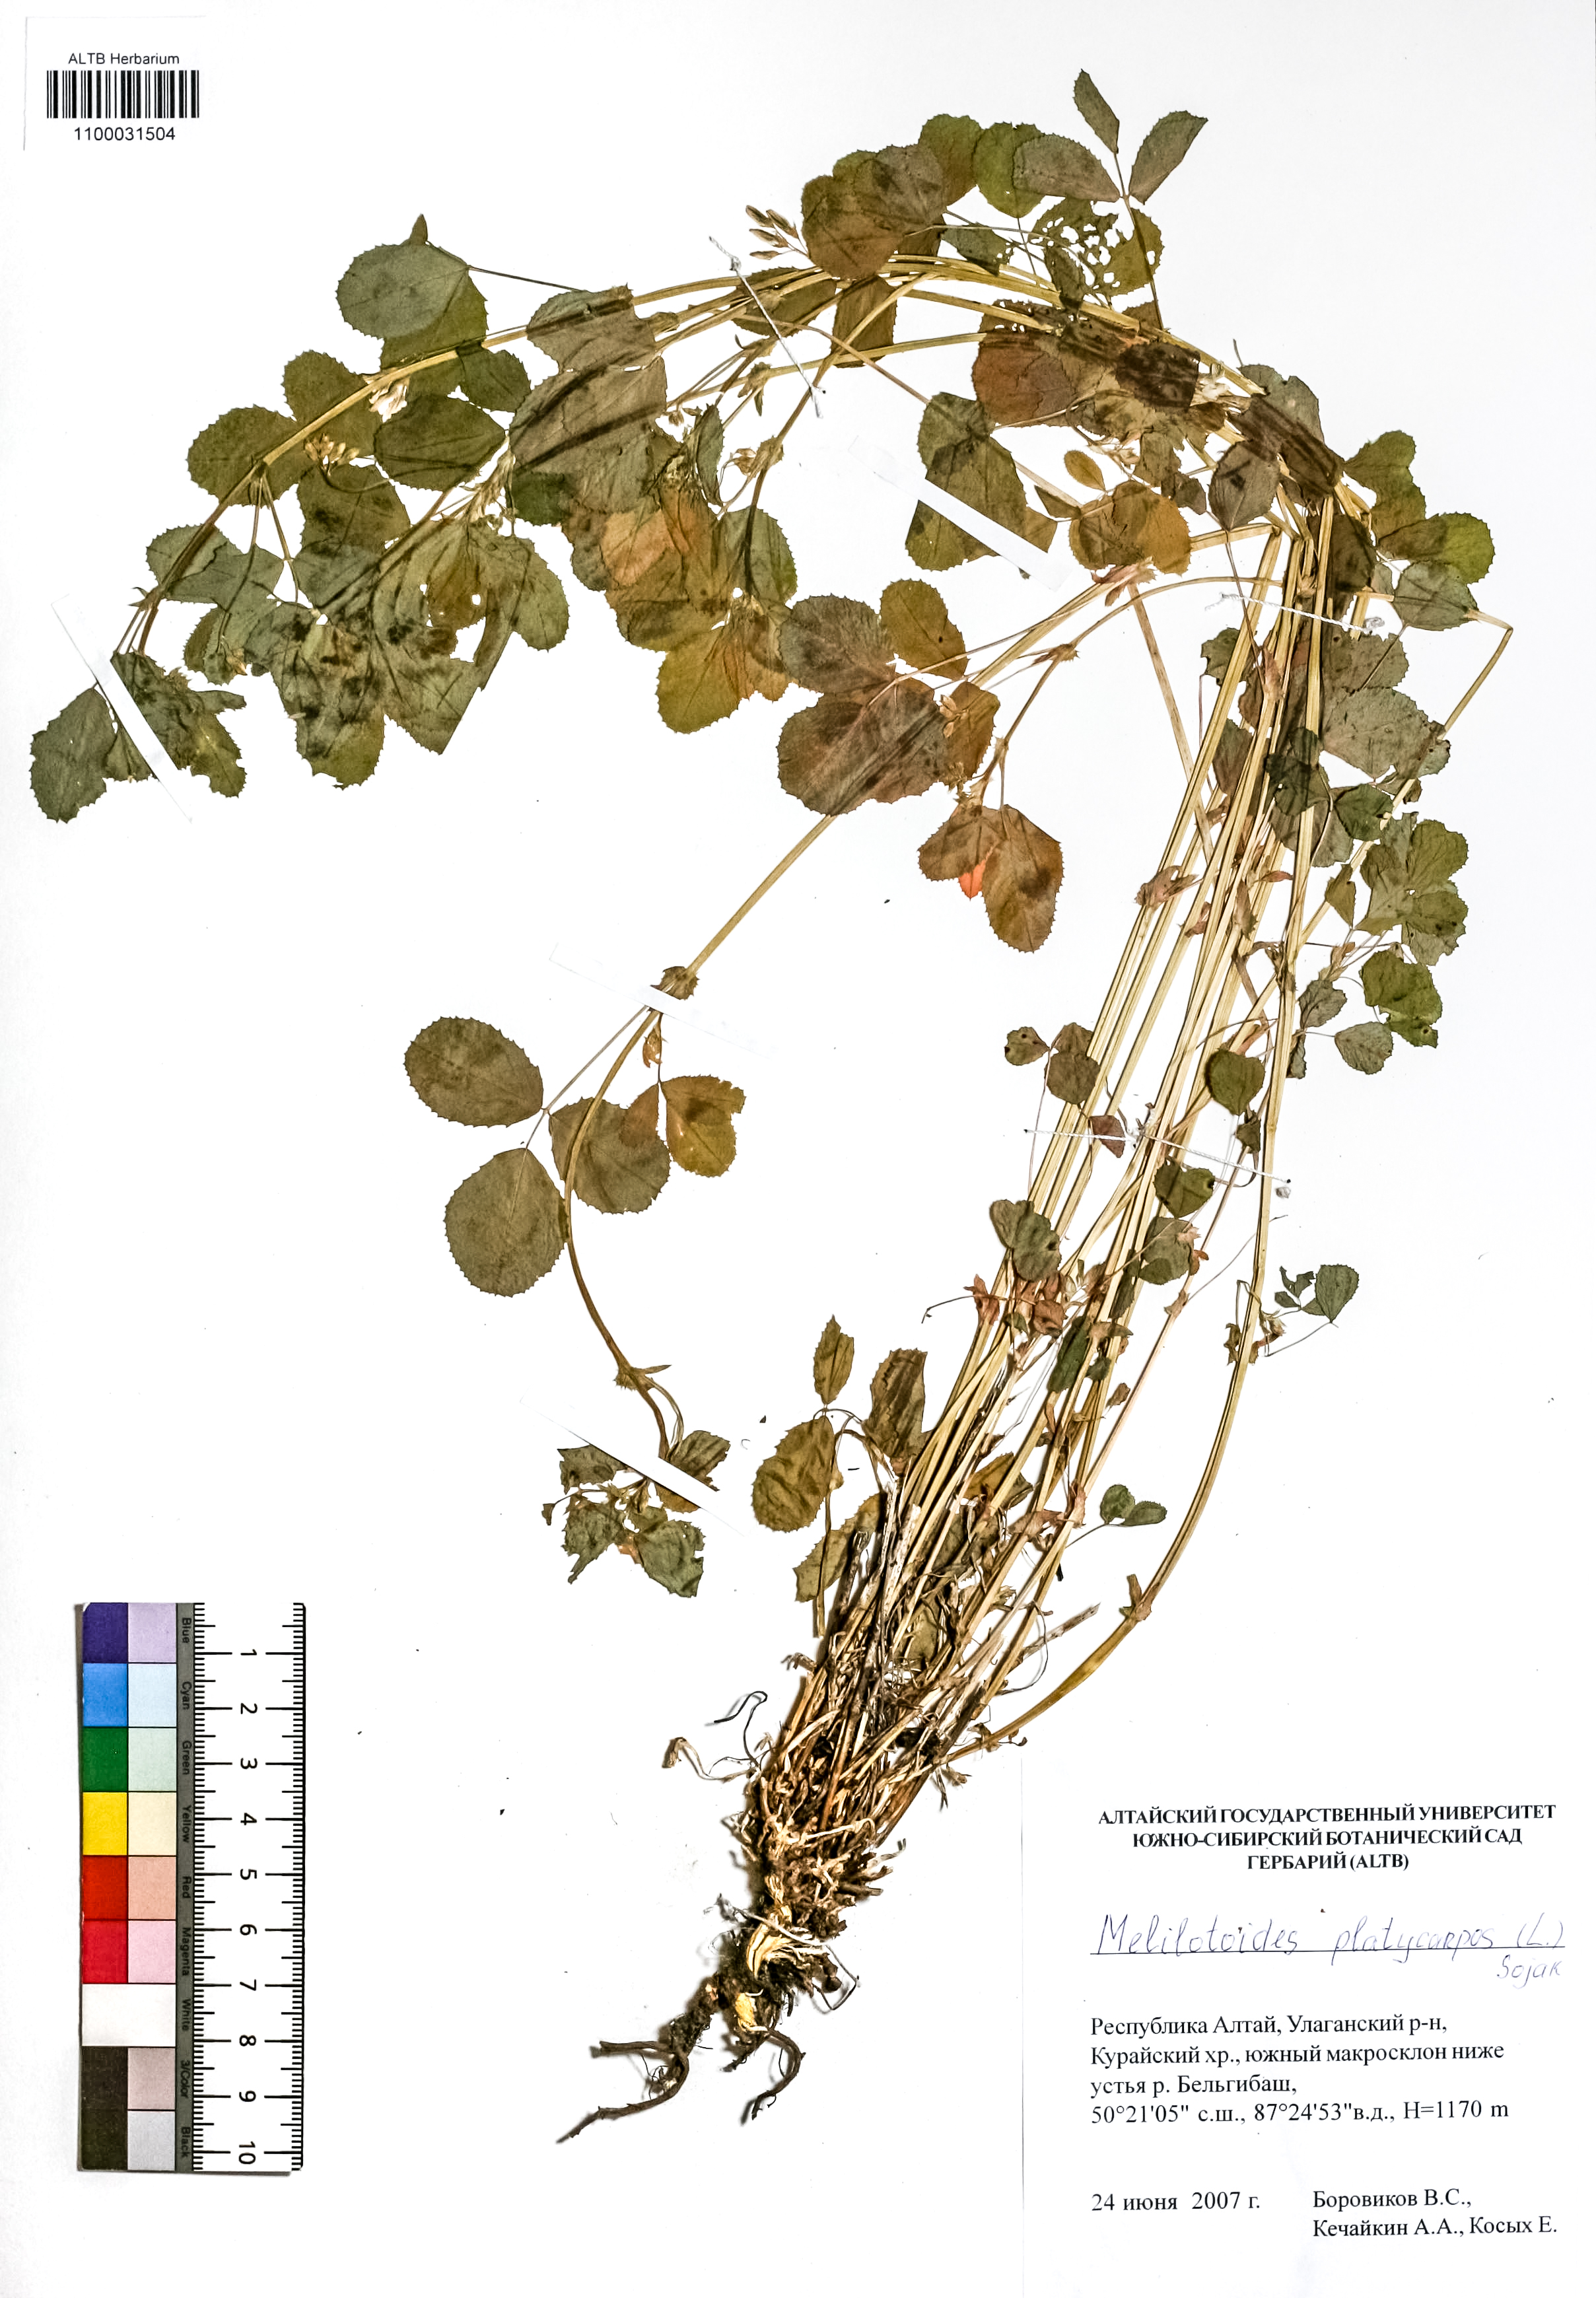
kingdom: Plantae
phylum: Tracheophyta
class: Magnoliopsida
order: Fabales
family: Fabaceae
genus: Medicago
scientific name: Medicago platycarpos
